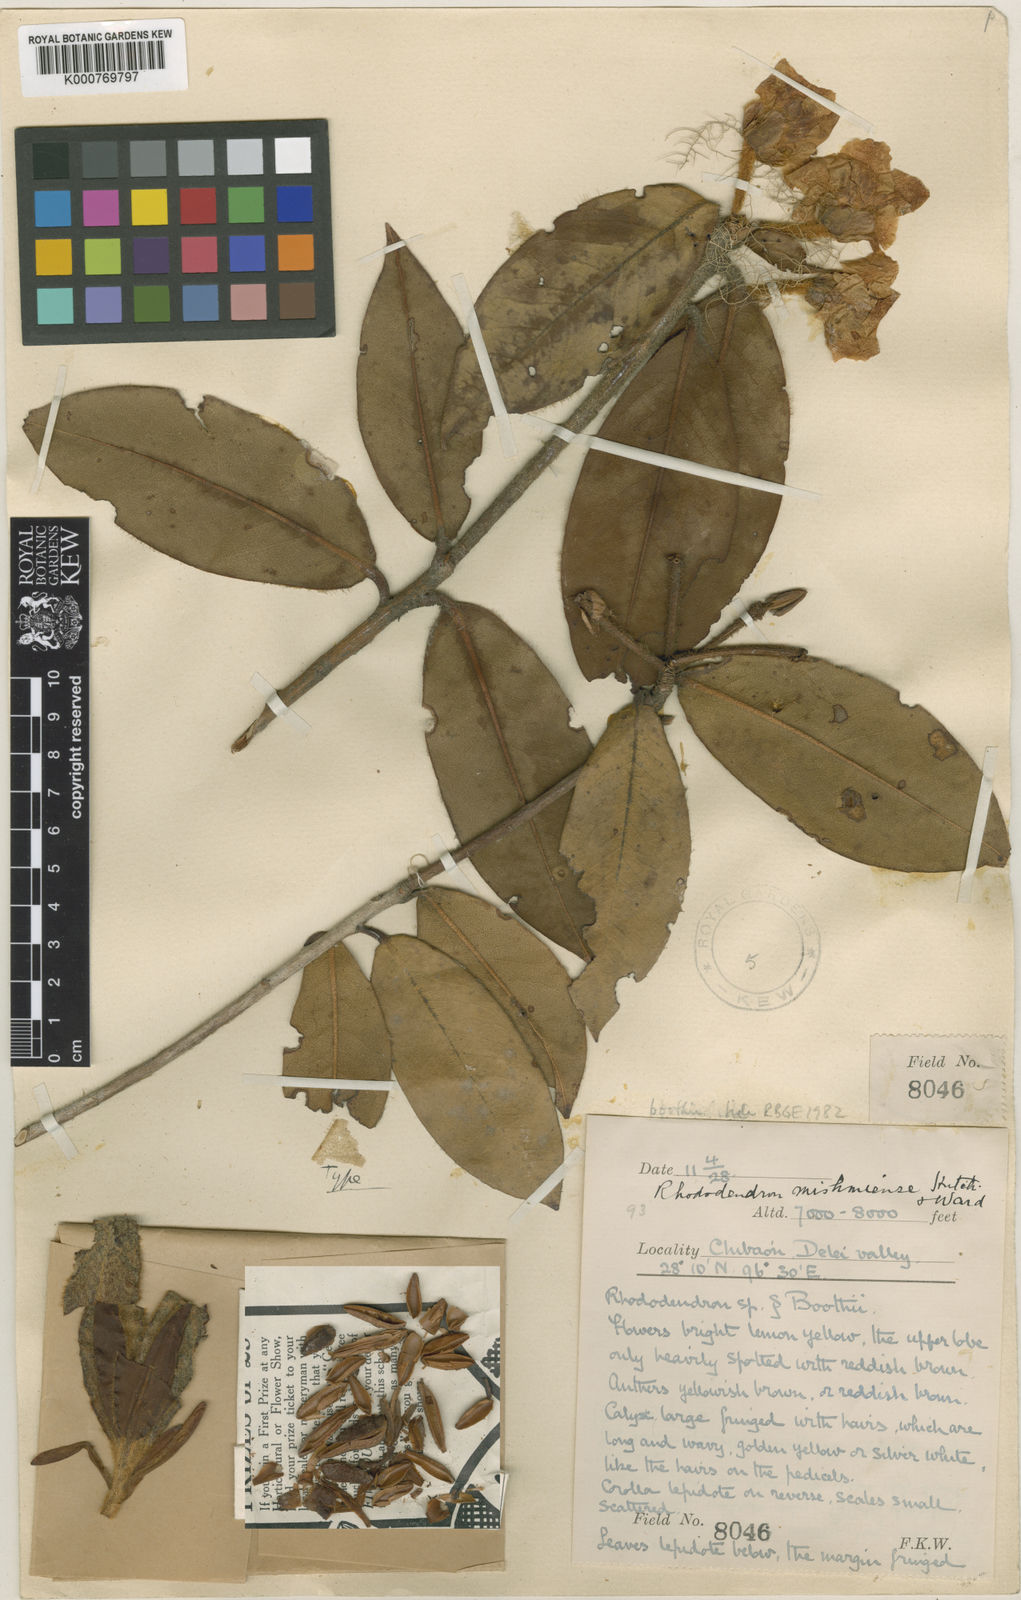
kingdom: Plantae
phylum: Tracheophyta
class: Magnoliopsida
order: Ericales
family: Ericaceae
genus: Rhododendron
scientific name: Rhododendron boothii
